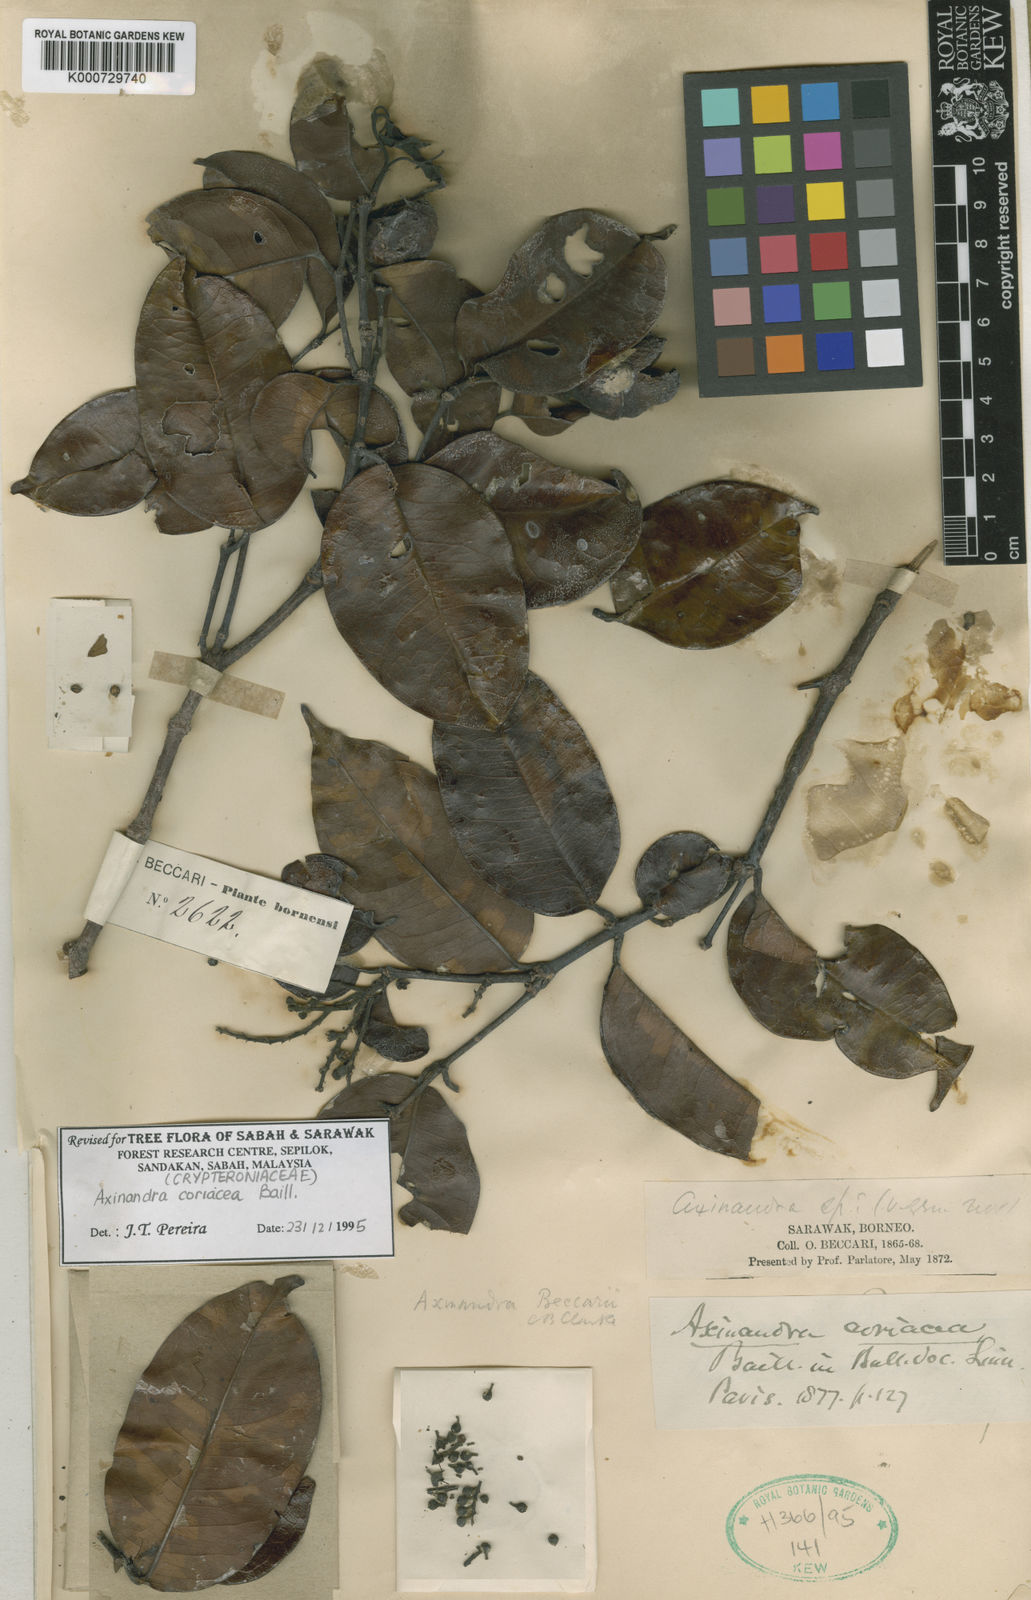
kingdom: Plantae
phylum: Tracheophyta
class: Magnoliopsida
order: Myrtales
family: Crypteroniaceae
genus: Axinandra
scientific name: Axinandra coriacea
